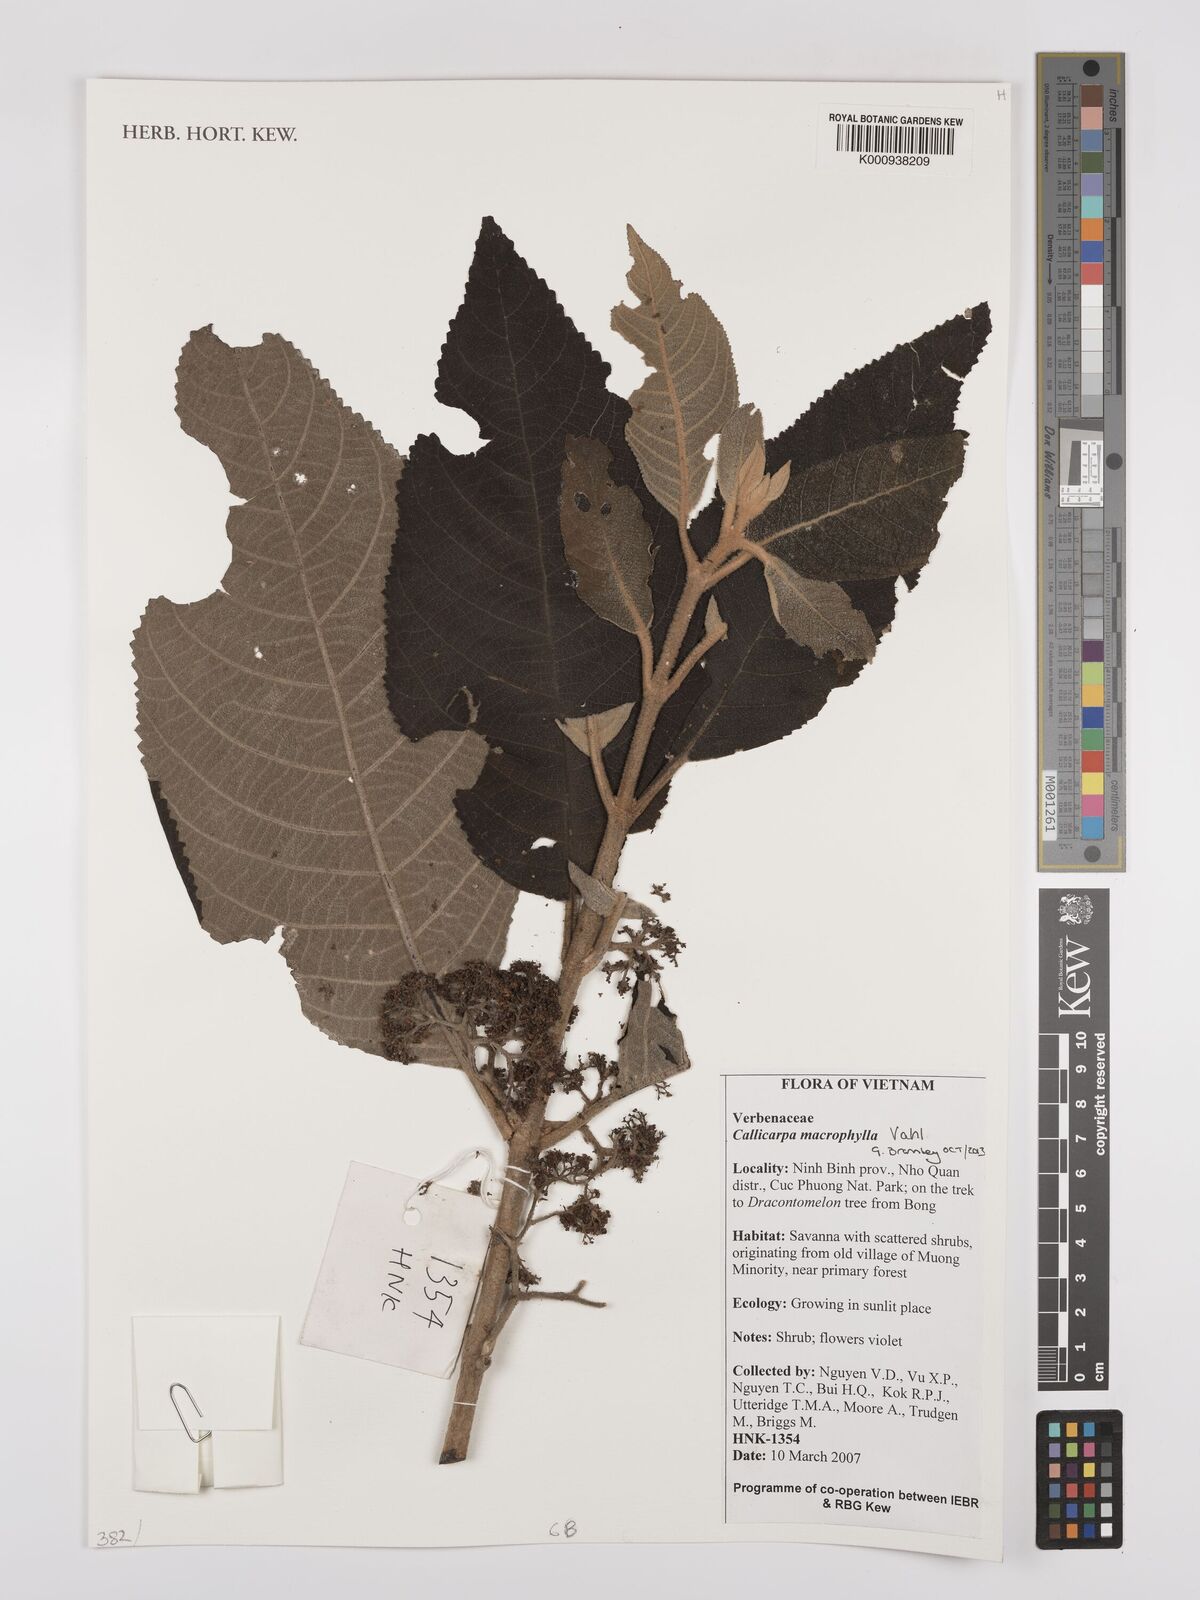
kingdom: Plantae
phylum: Tracheophyta
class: Magnoliopsida
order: Lamiales
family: Lamiaceae
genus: Callicarpa
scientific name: Callicarpa macrophylla
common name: Urn-fruit beauty-berry
